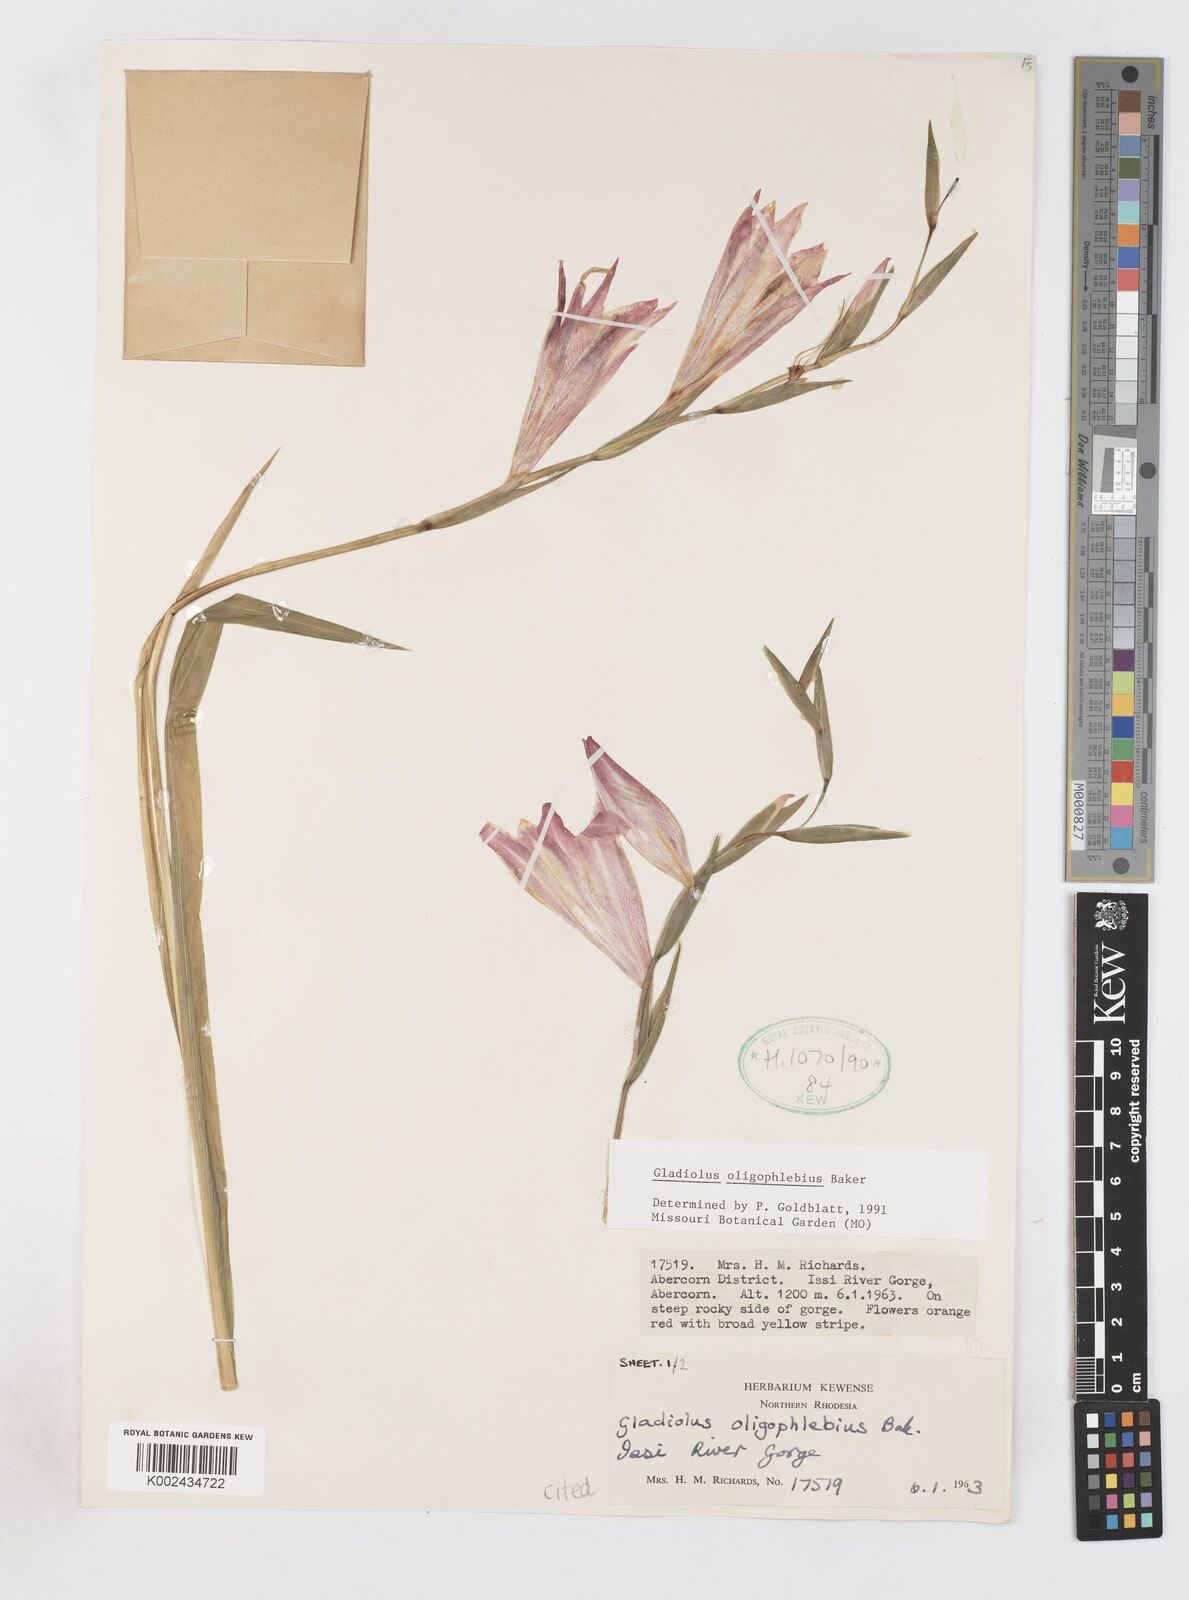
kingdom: Plantae
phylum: Tracheophyta
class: Liliopsida
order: Asparagales
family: Iridaceae
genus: Gladiolus
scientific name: Gladiolus oligophlebius
